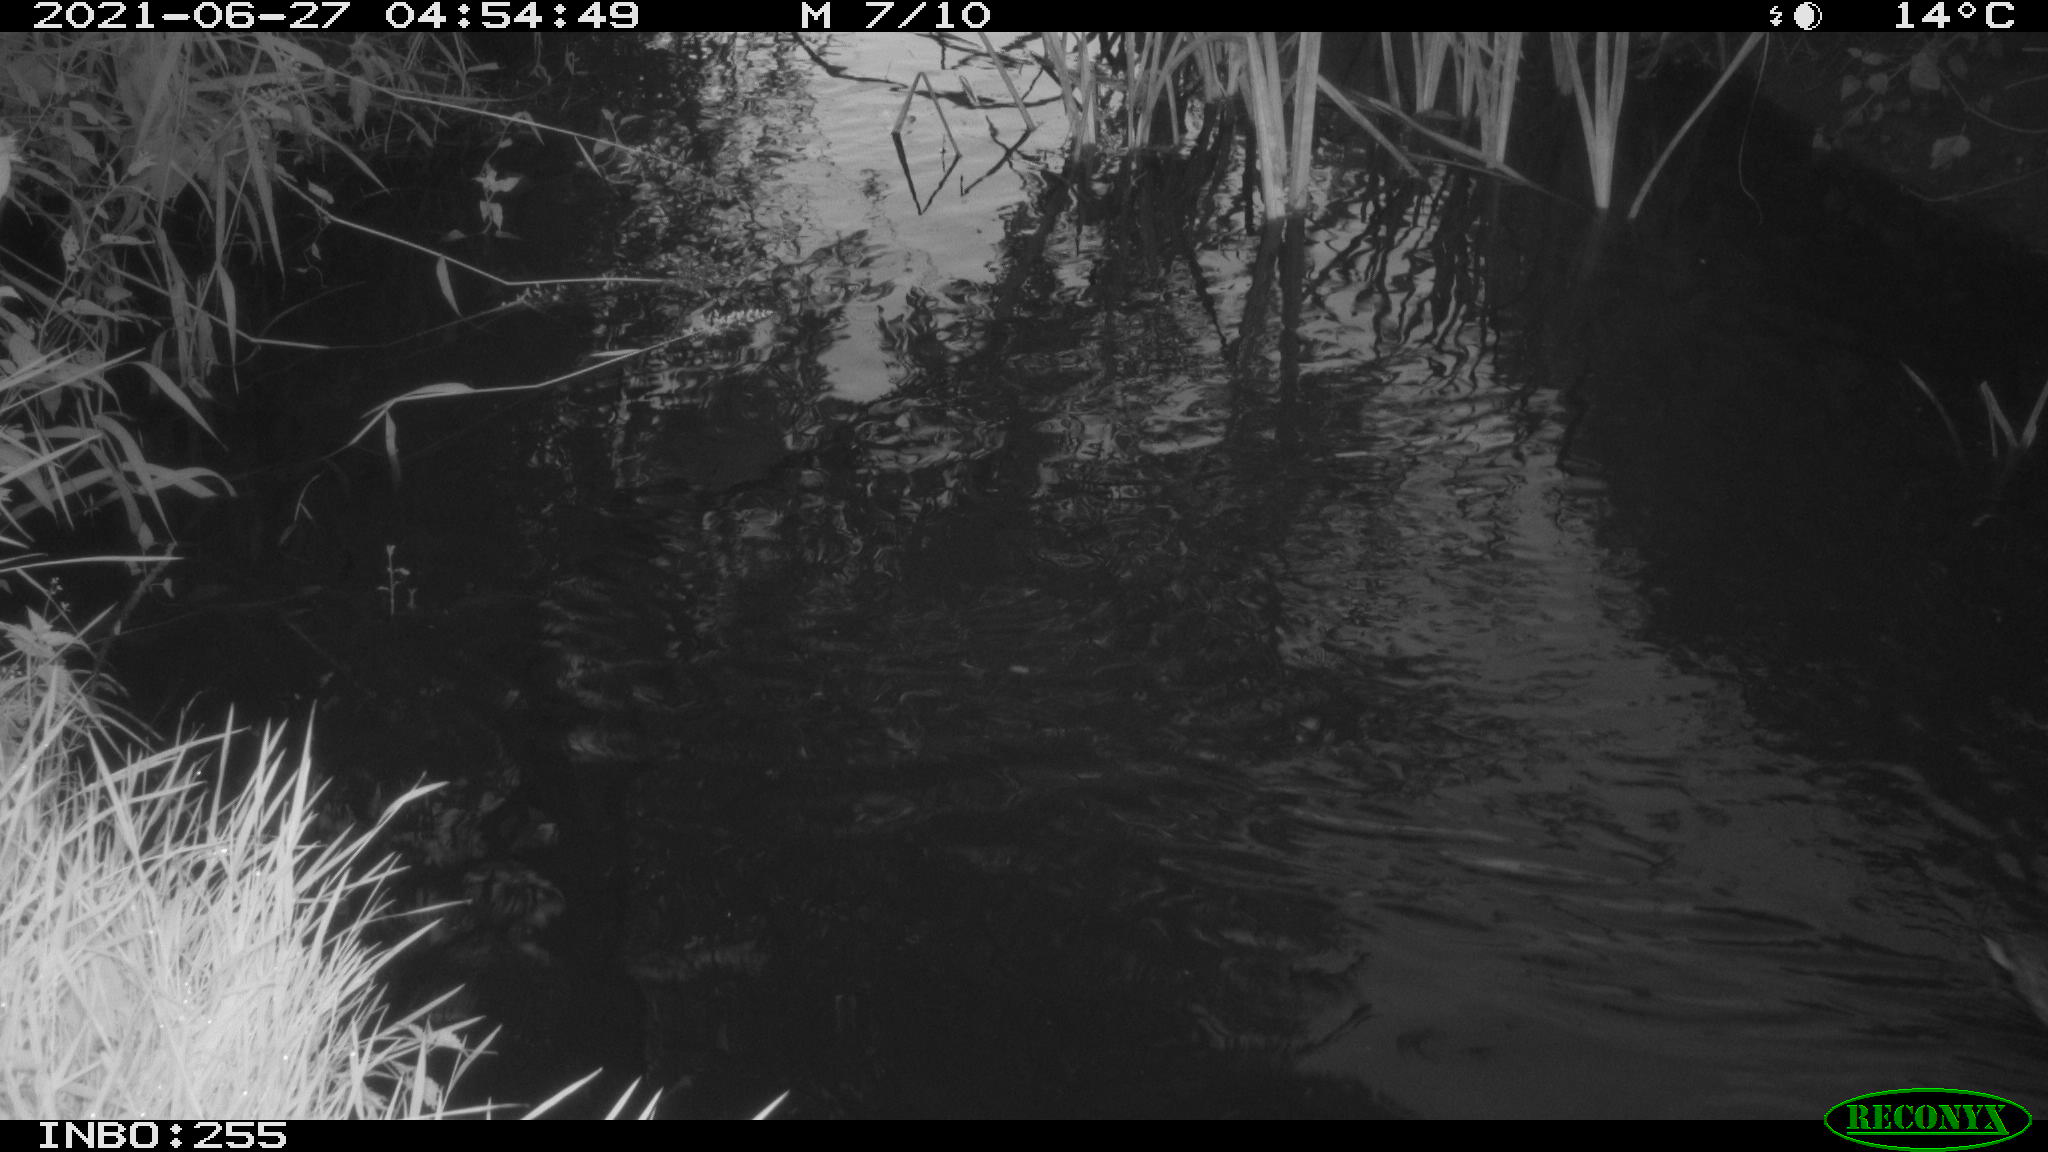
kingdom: Animalia
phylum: Chordata
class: Aves
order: Anseriformes
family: Anatidae
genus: Anas
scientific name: Anas
